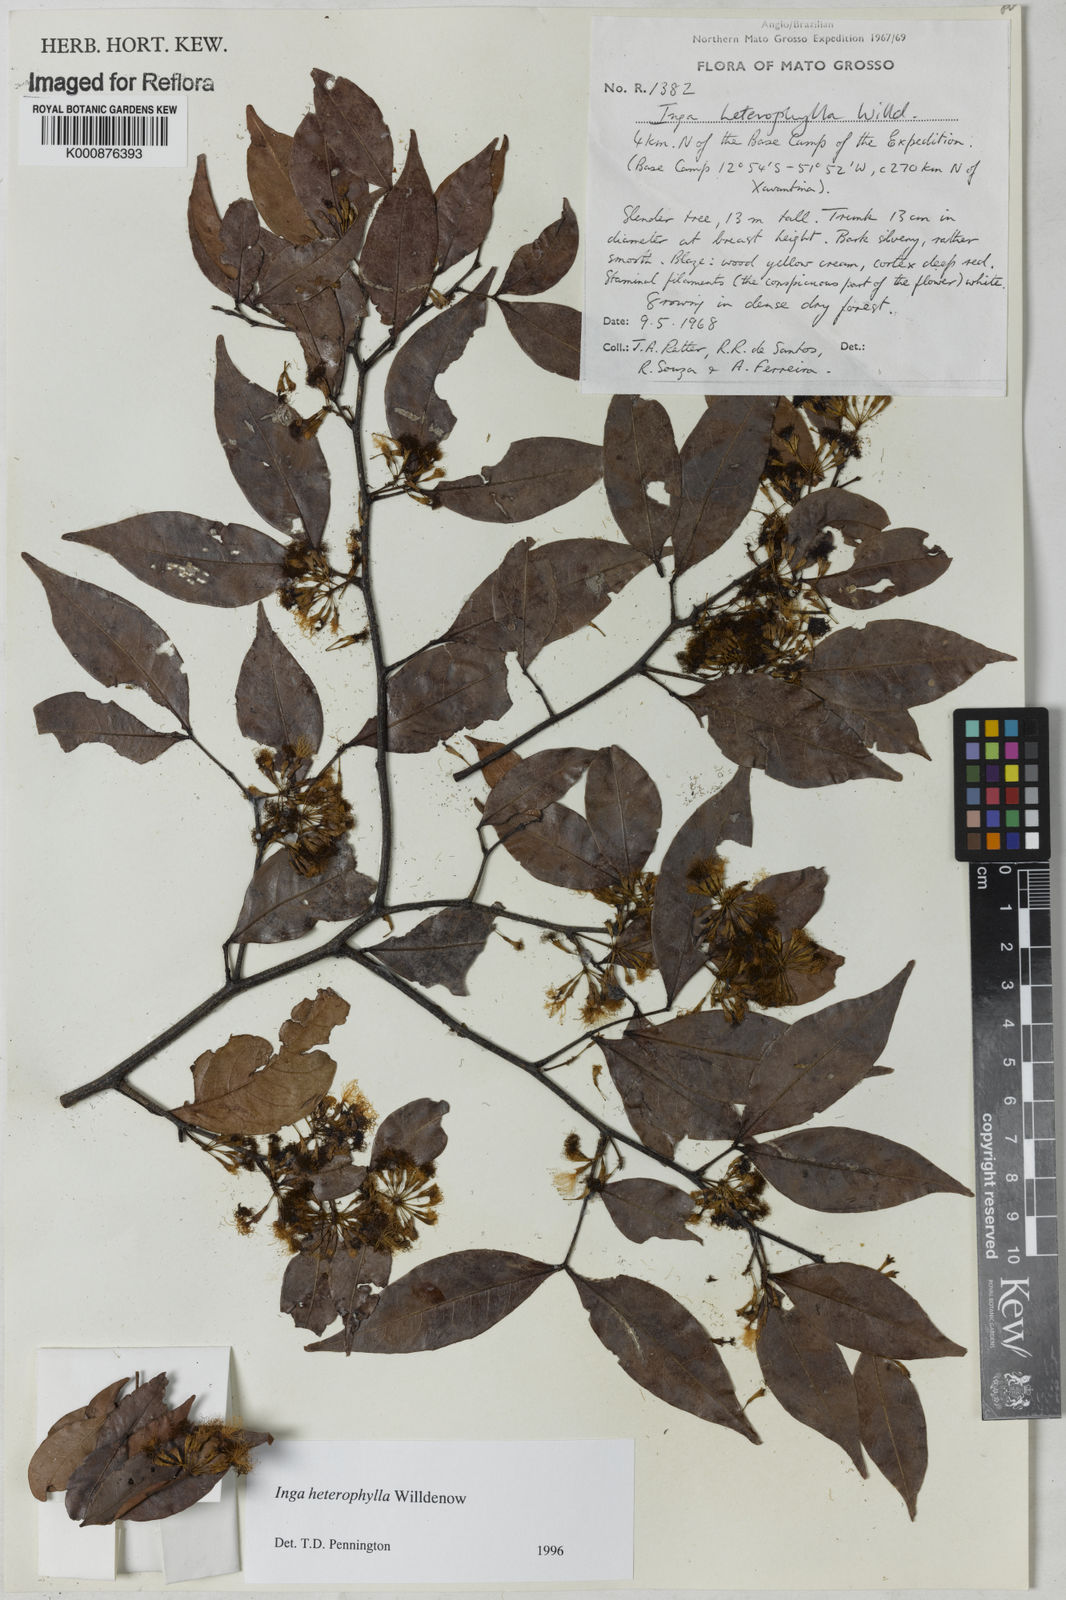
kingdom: Plantae
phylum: Tracheophyta
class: Magnoliopsida
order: Fabales
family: Fabaceae
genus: Inga
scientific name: Inga heterophylla
